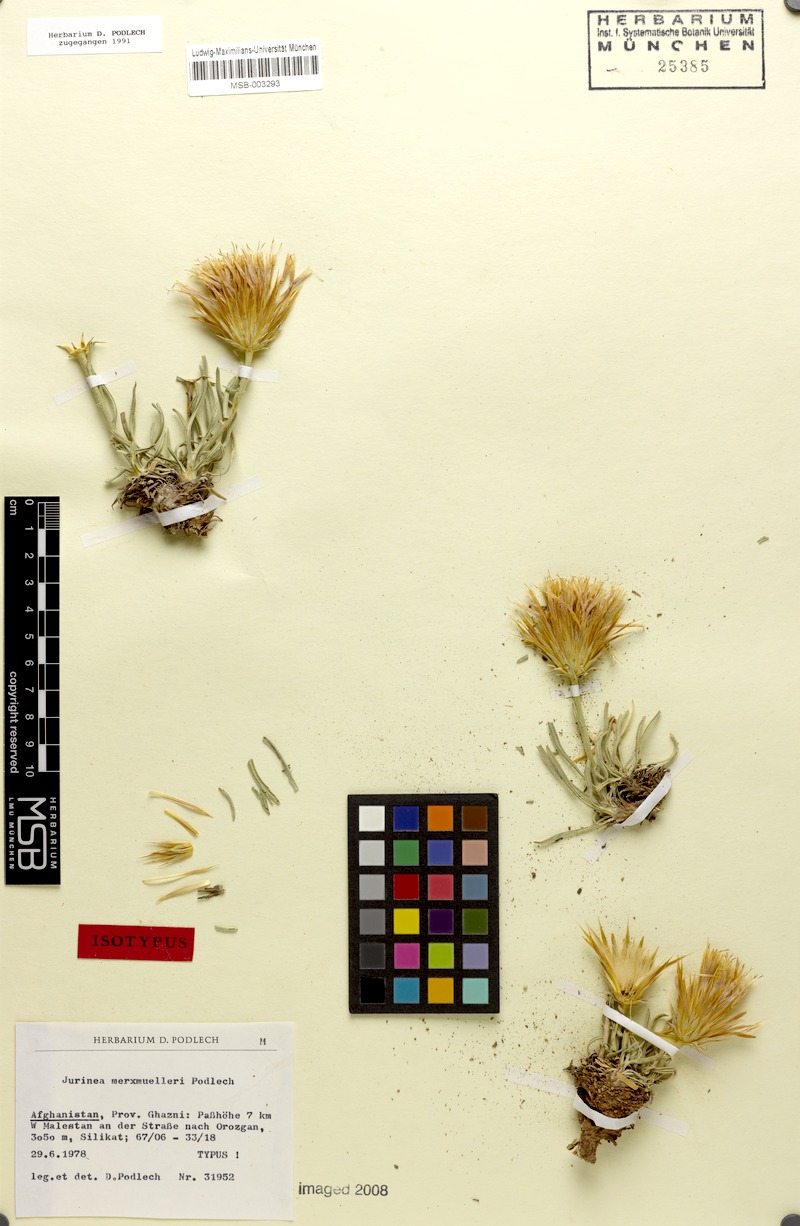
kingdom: Plantae
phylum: Tracheophyta
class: Magnoliopsida
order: Asterales
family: Asteraceae
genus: Jurinea
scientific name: Jurinea merxmuelleri
